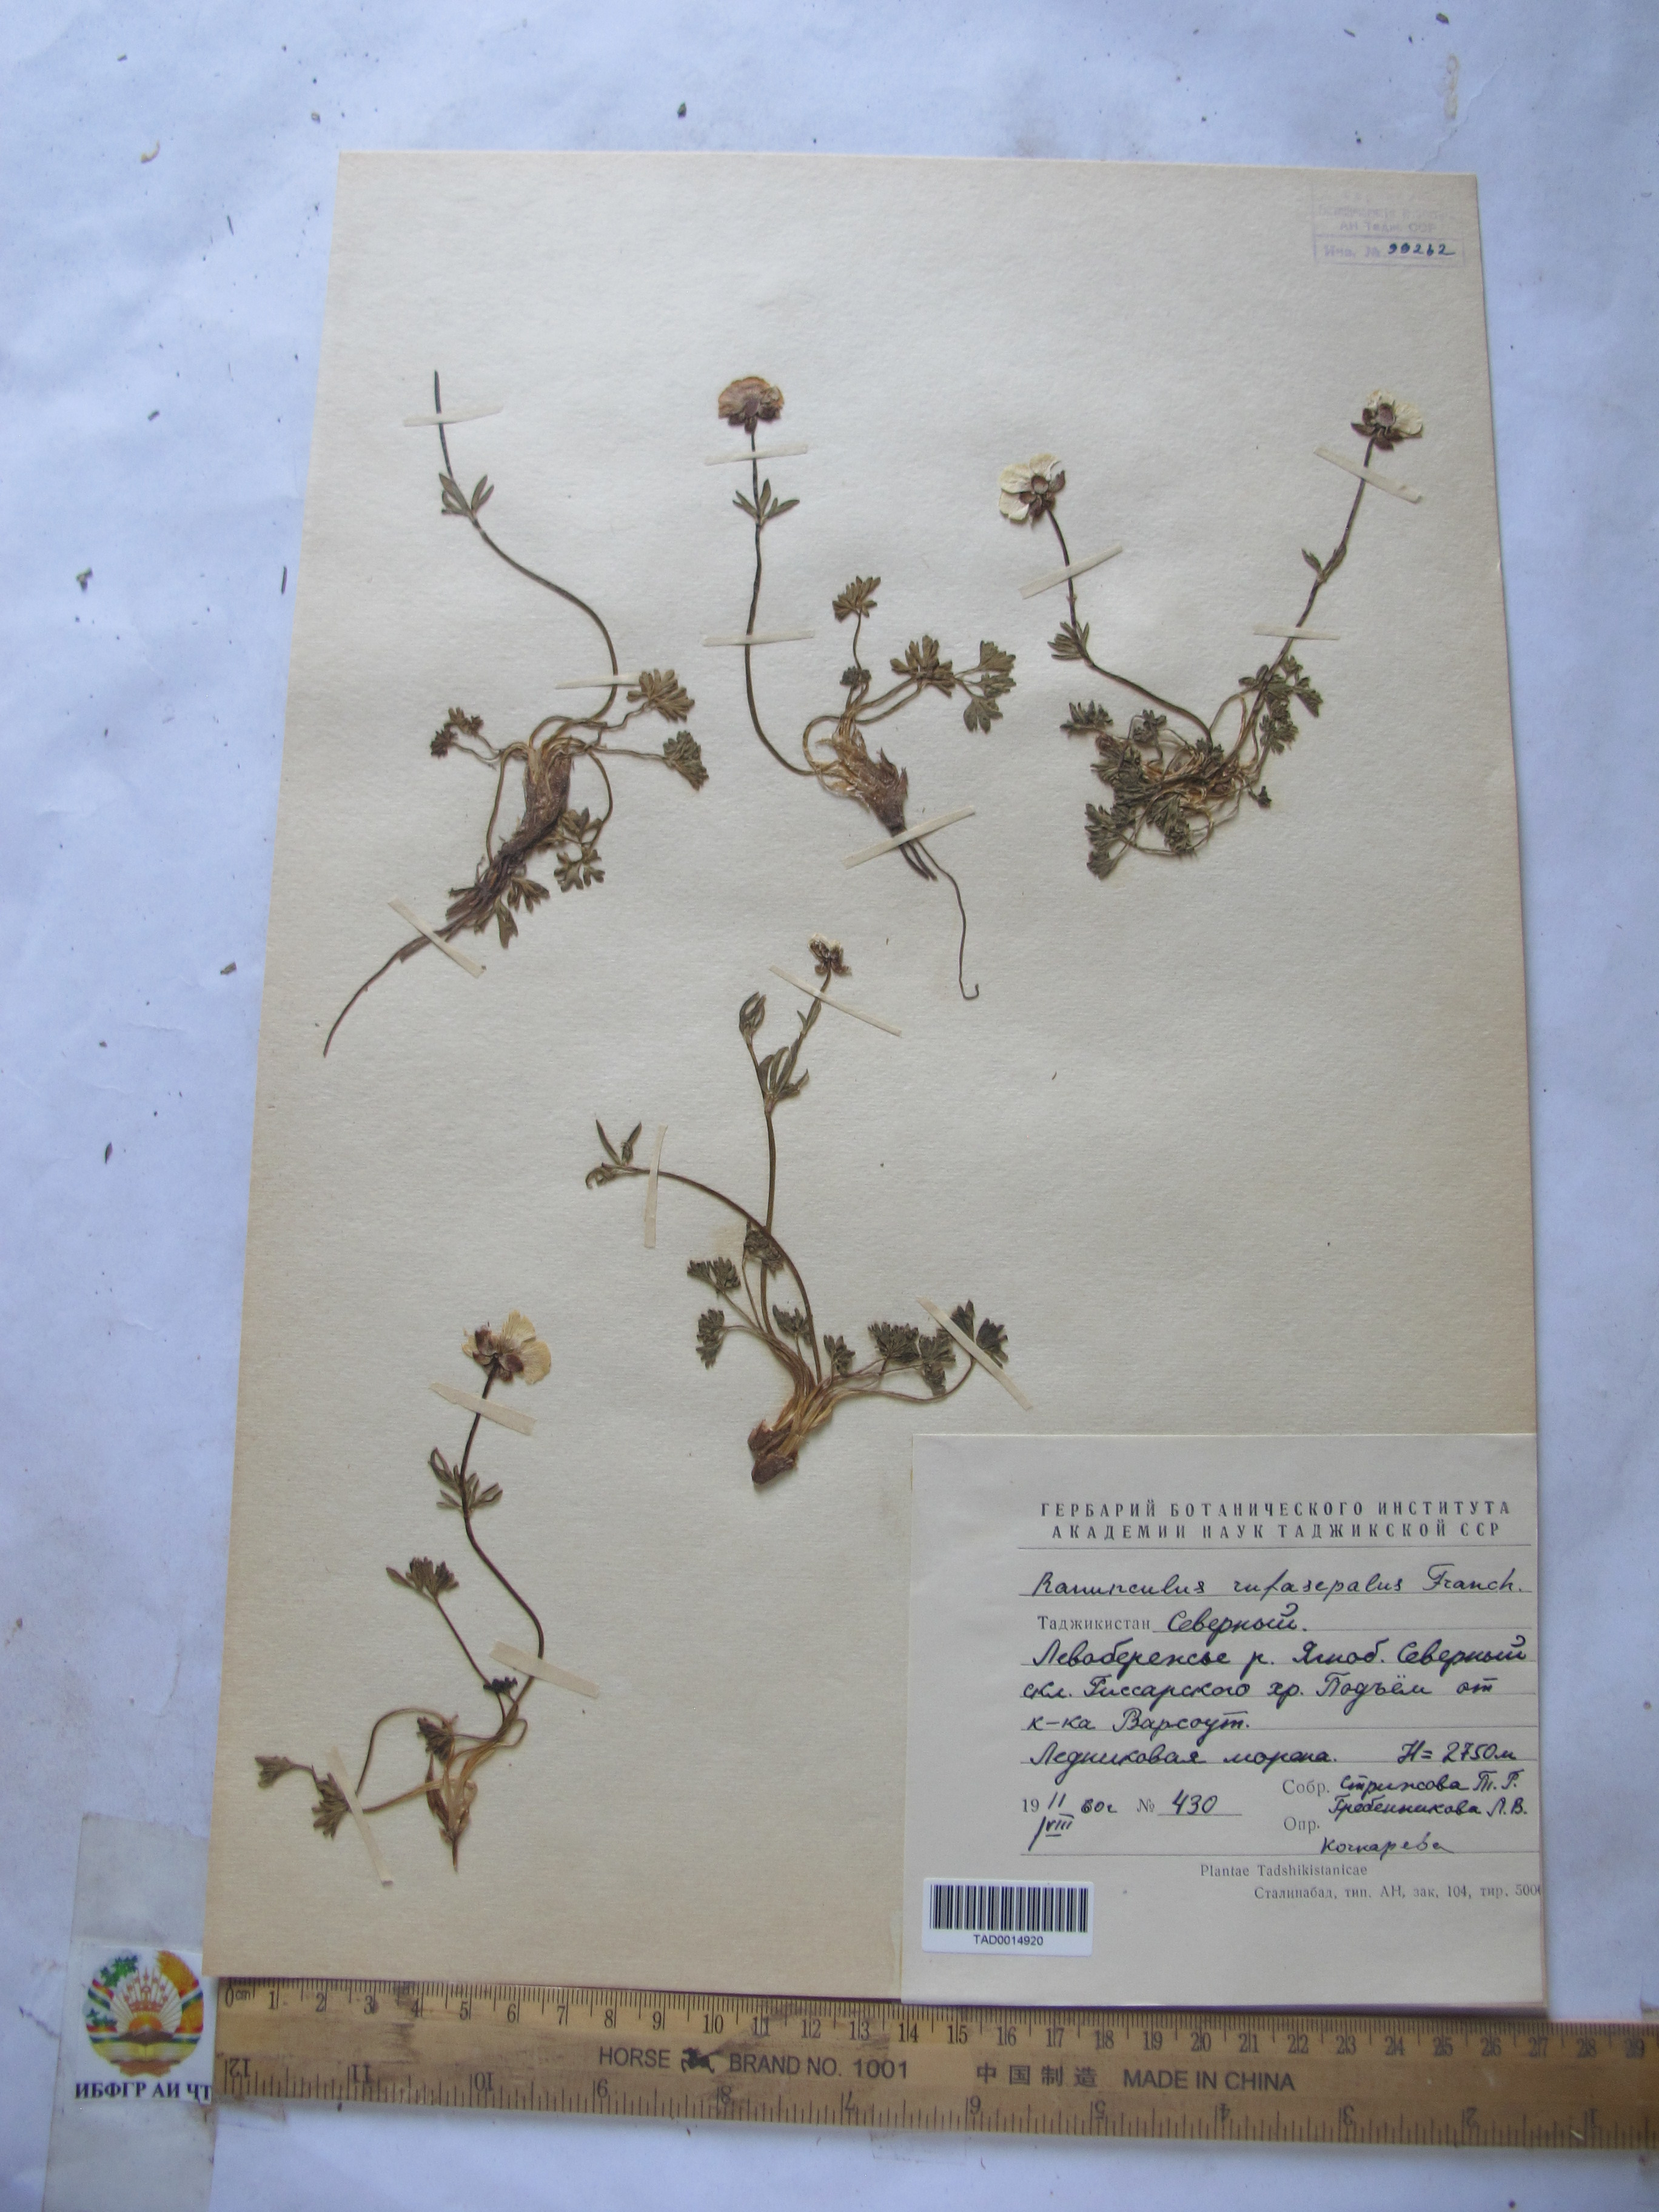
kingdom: Plantae
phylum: Tracheophyta
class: Magnoliopsida
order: Ranunculales
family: Ranunculaceae
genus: Ranunculus
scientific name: Ranunculus rufosepalus
